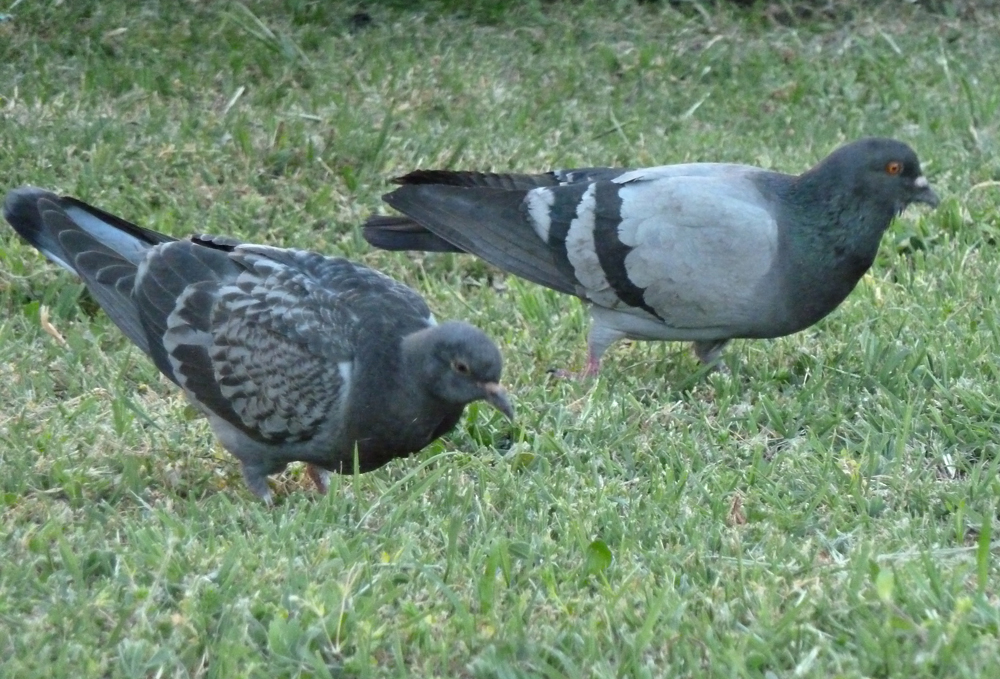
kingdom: Animalia
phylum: Chordata
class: Aves
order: Columbiformes
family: Columbidae
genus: Columba
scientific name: Columba livia
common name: Rock pigeon
